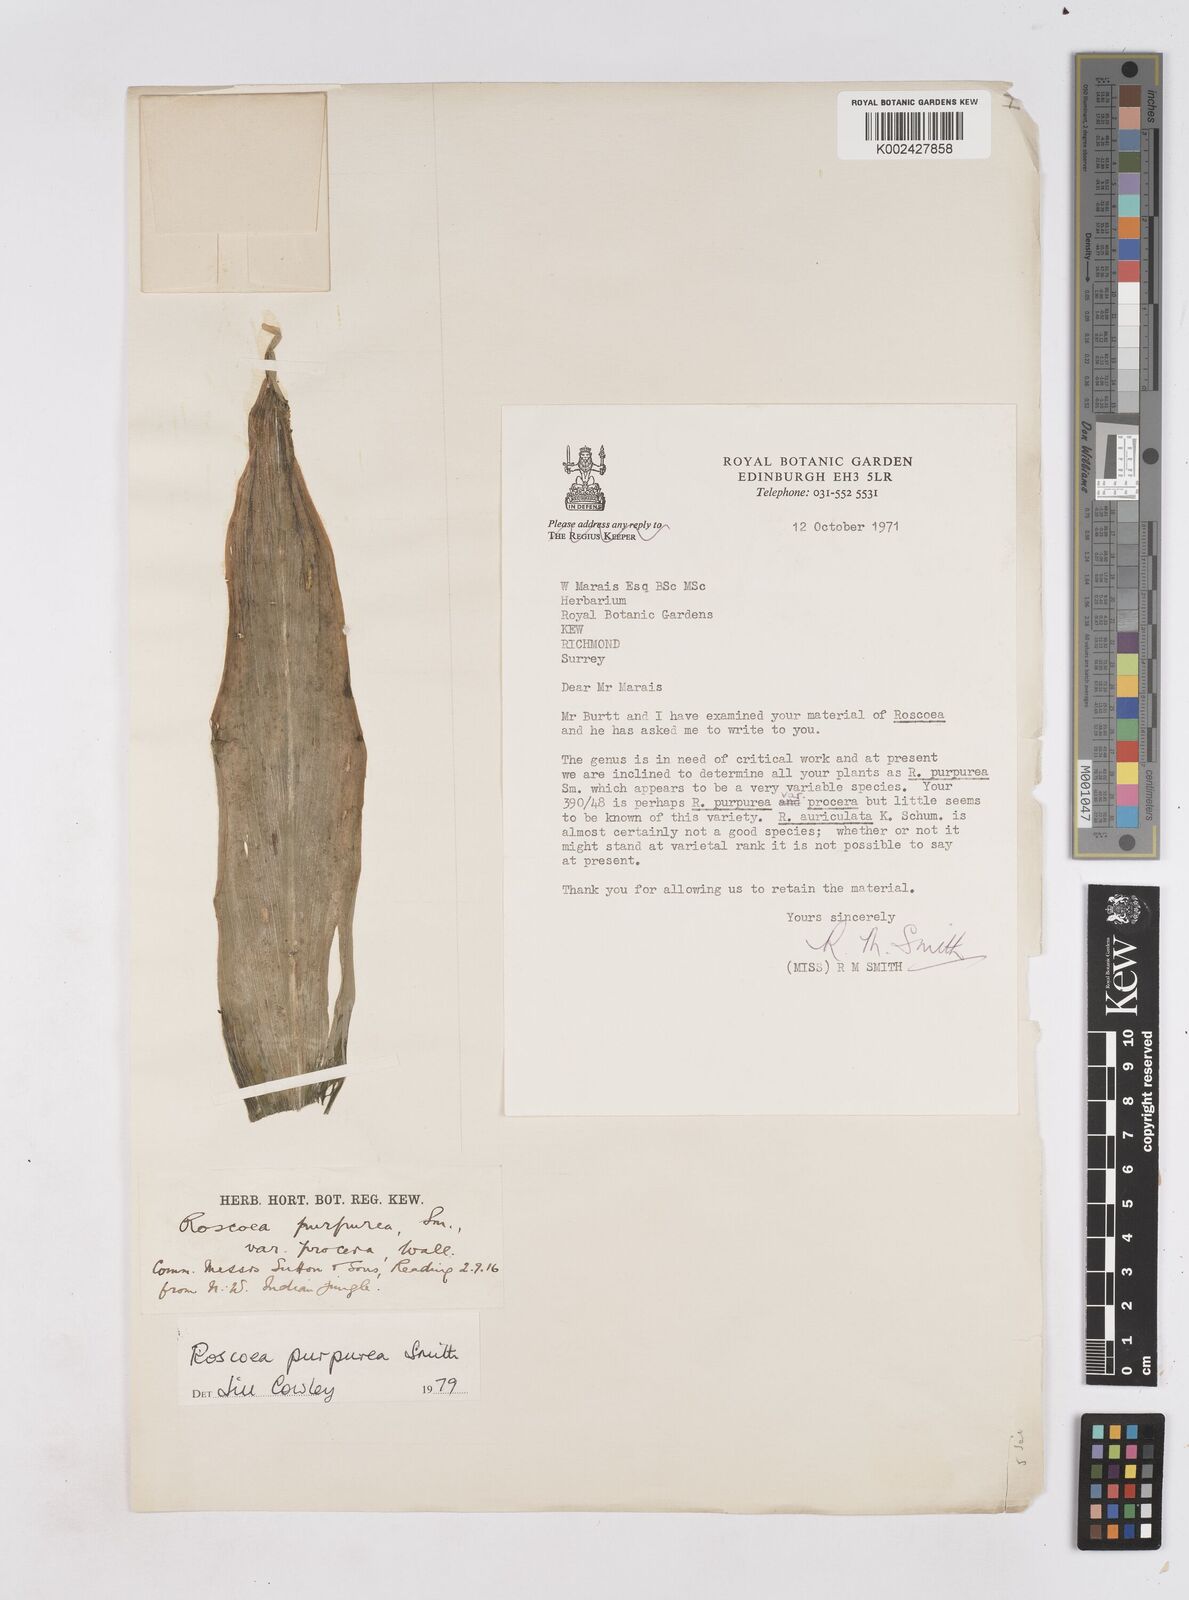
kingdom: Plantae
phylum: Tracheophyta
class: Liliopsida
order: Zingiberales
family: Zingiberaceae
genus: Roscoea
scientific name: Roscoea purpurea
